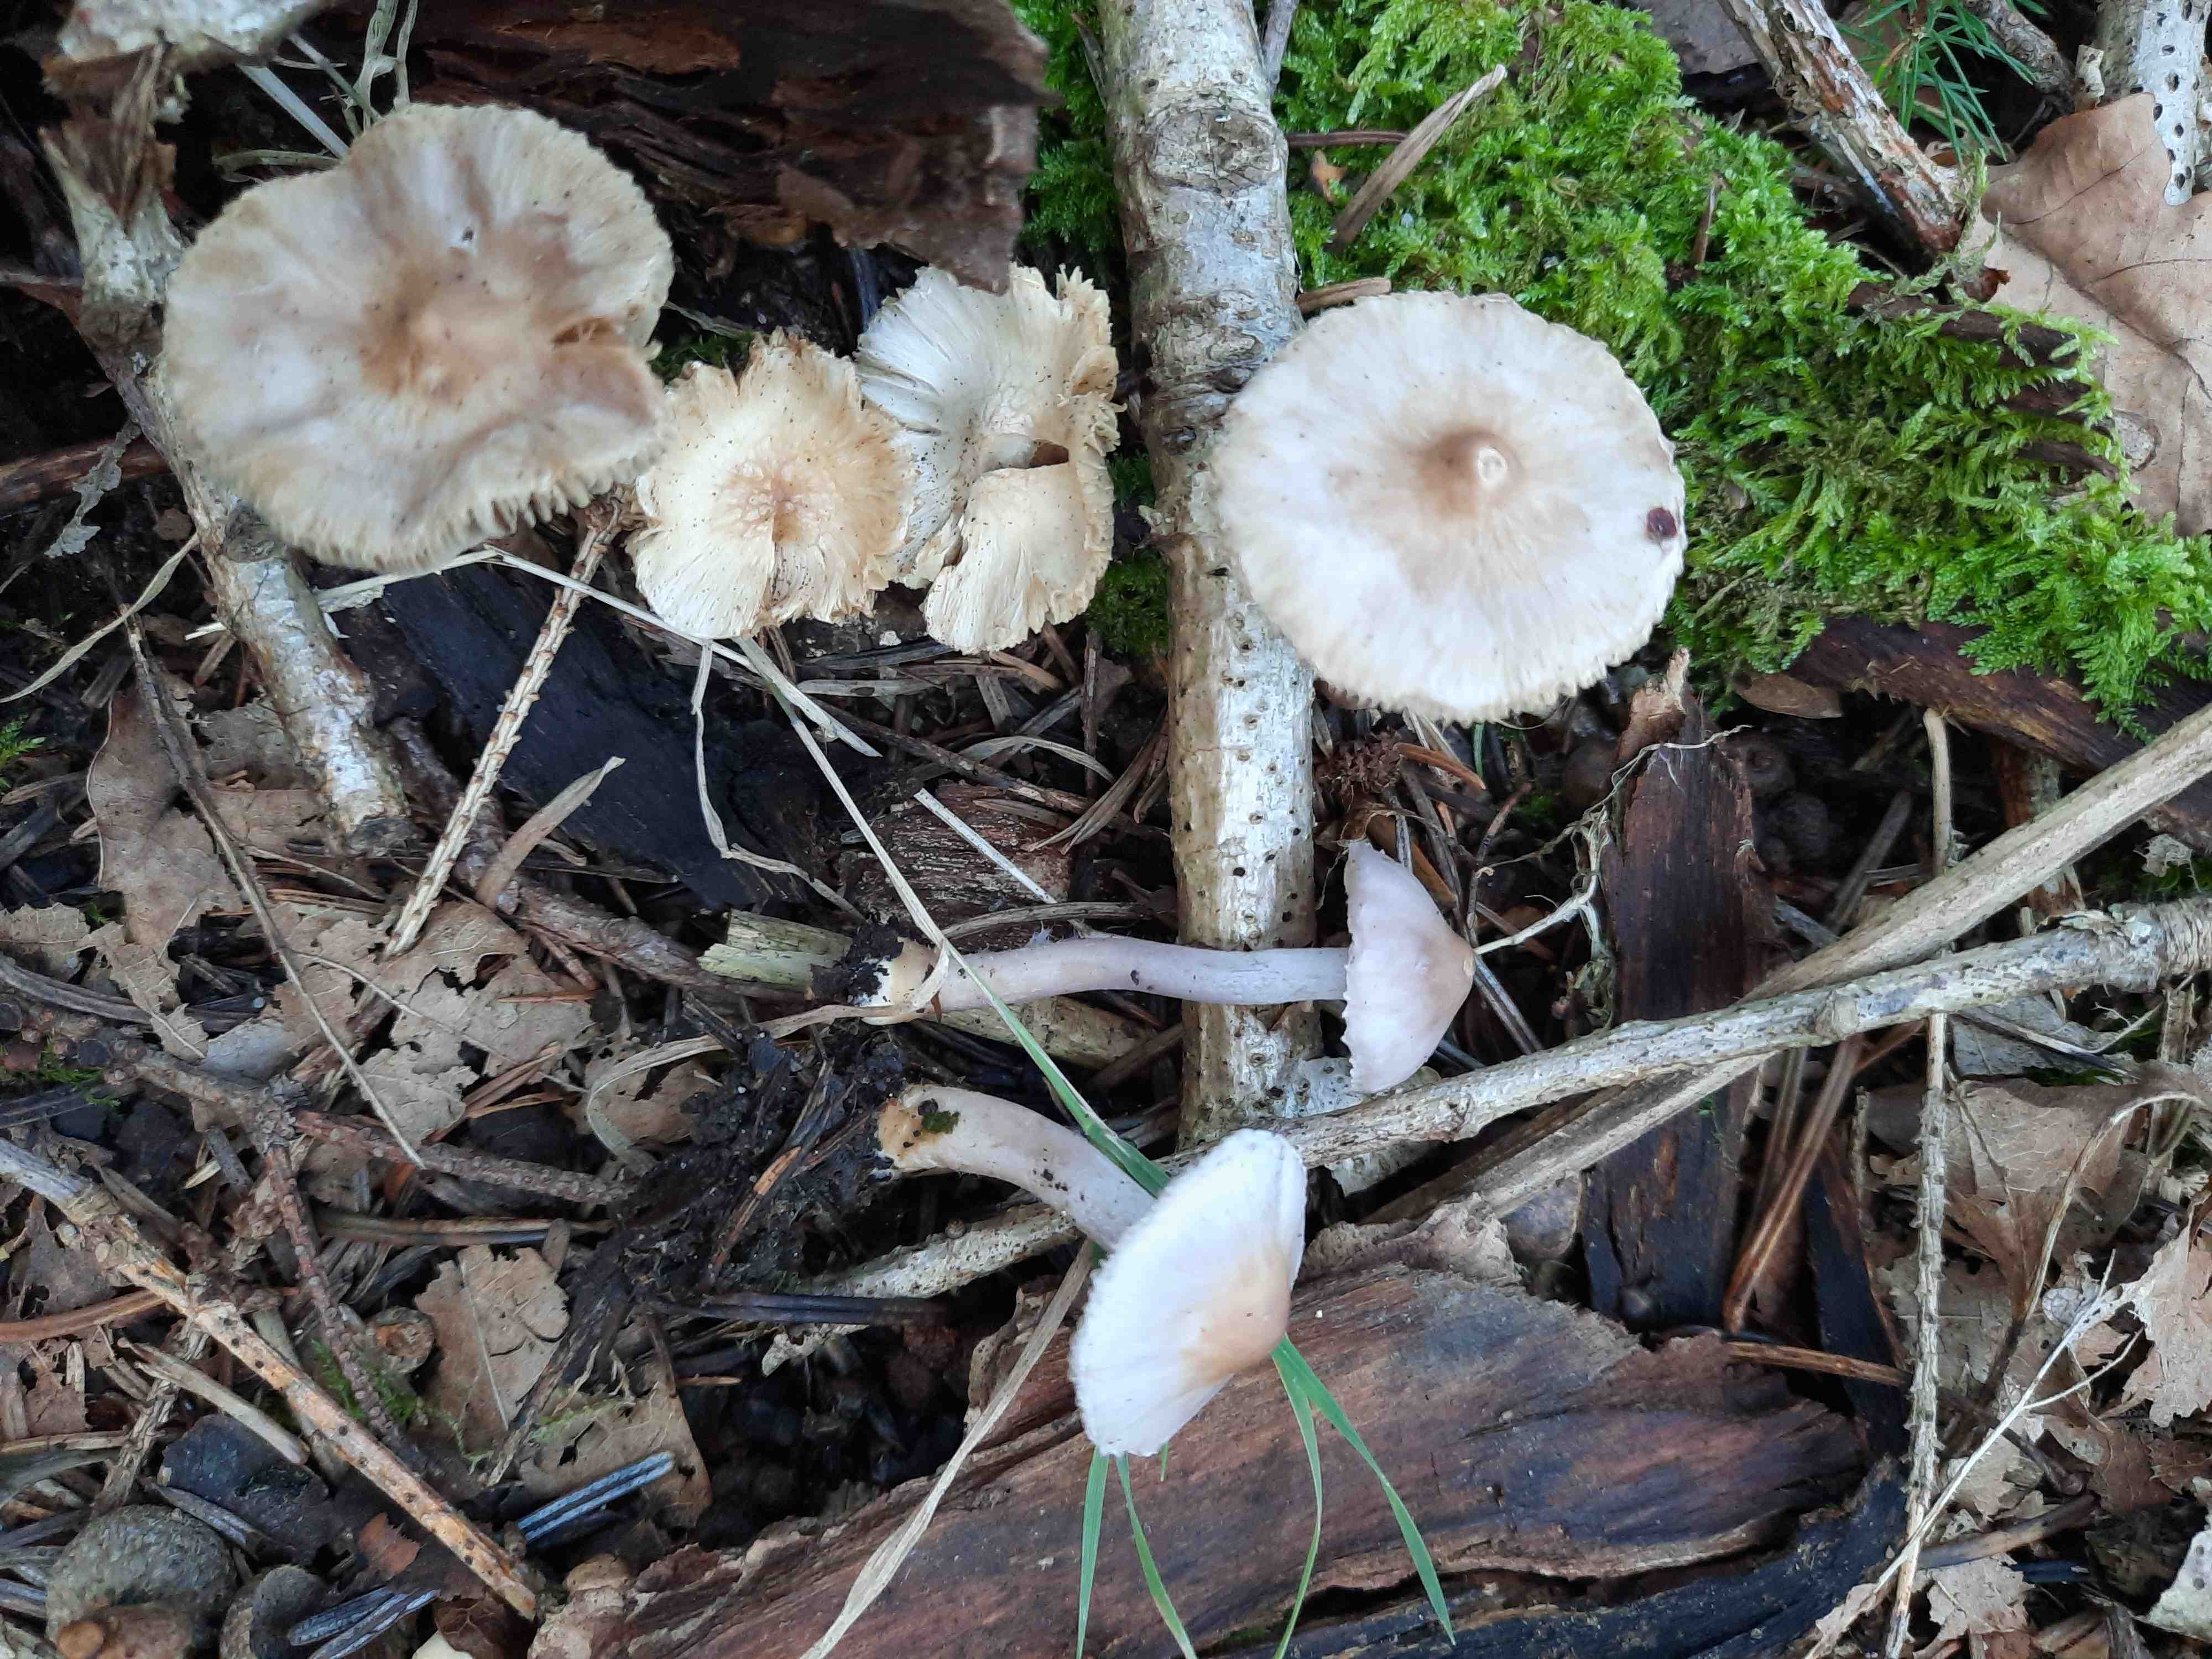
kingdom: Fungi
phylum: Basidiomycota
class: Agaricomycetes
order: Agaricales
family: Inocybaceae
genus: Inocybe
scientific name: Inocybe geophylla
